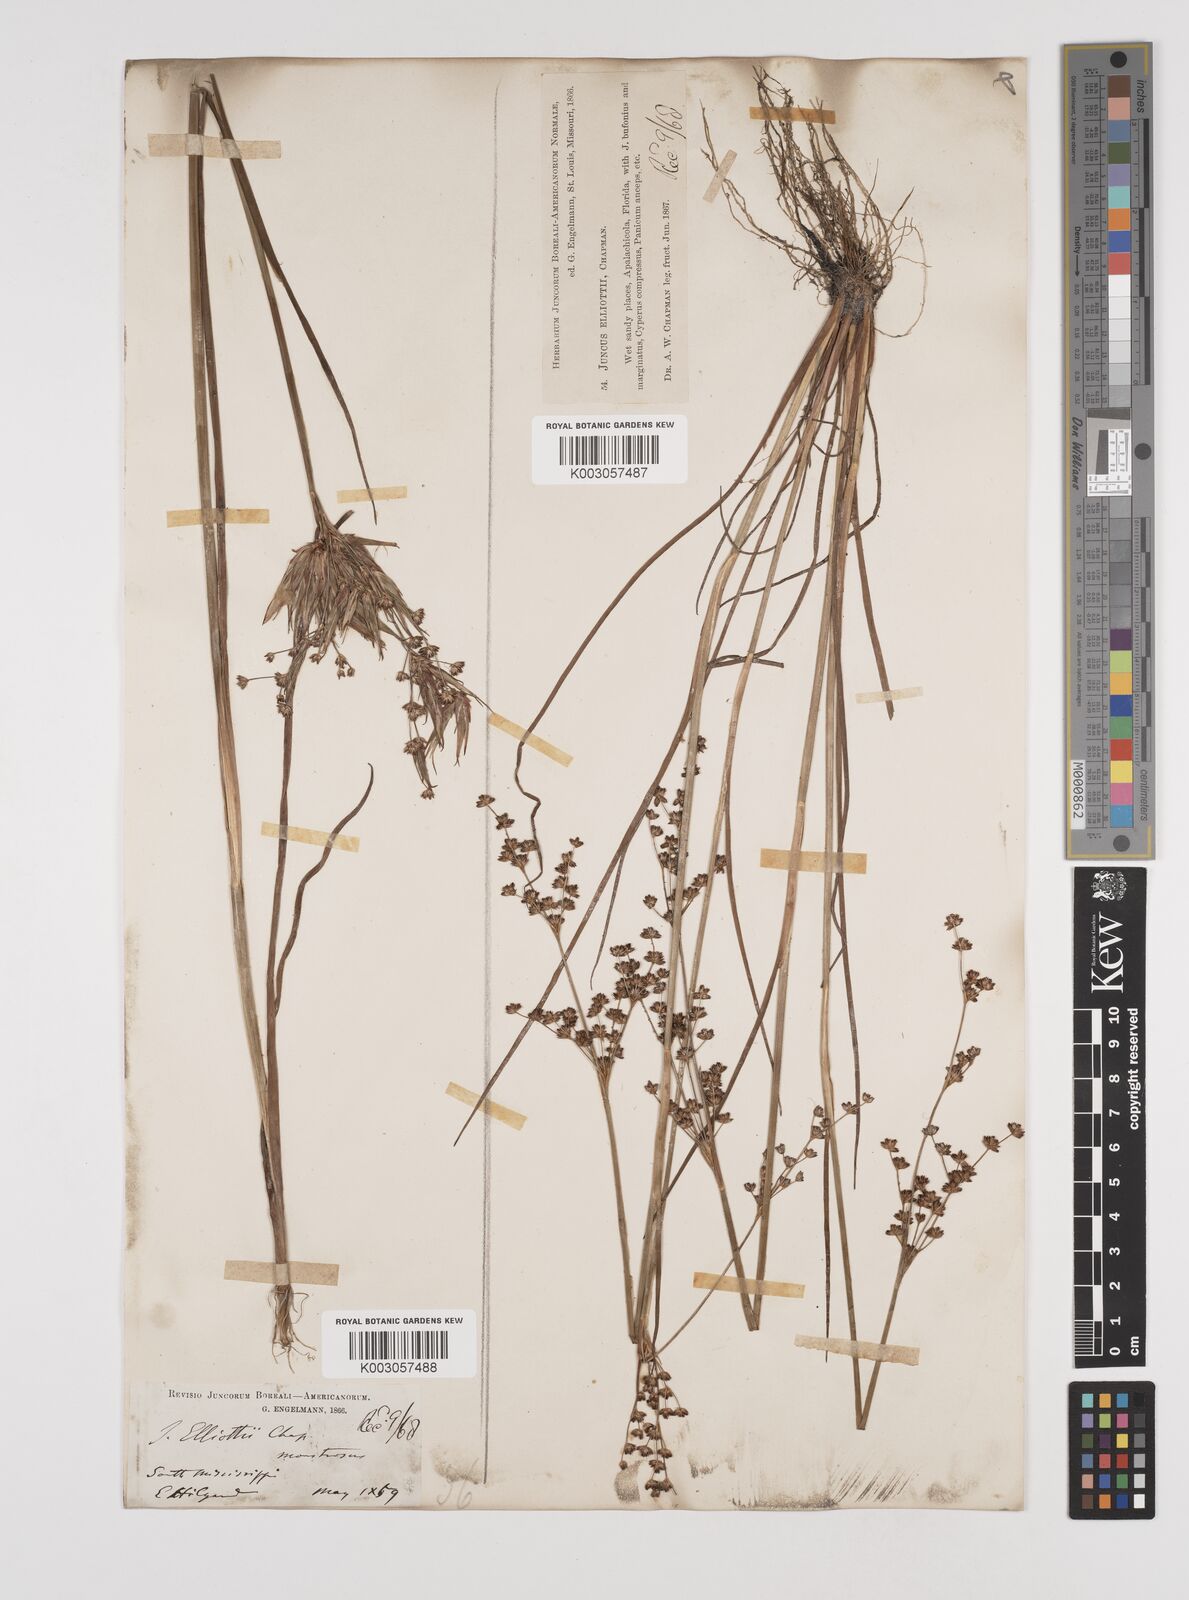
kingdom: Plantae
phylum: Tracheophyta
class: Liliopsida
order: Poales
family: Juncaceae
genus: Juncus
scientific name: Juncus elliottii
